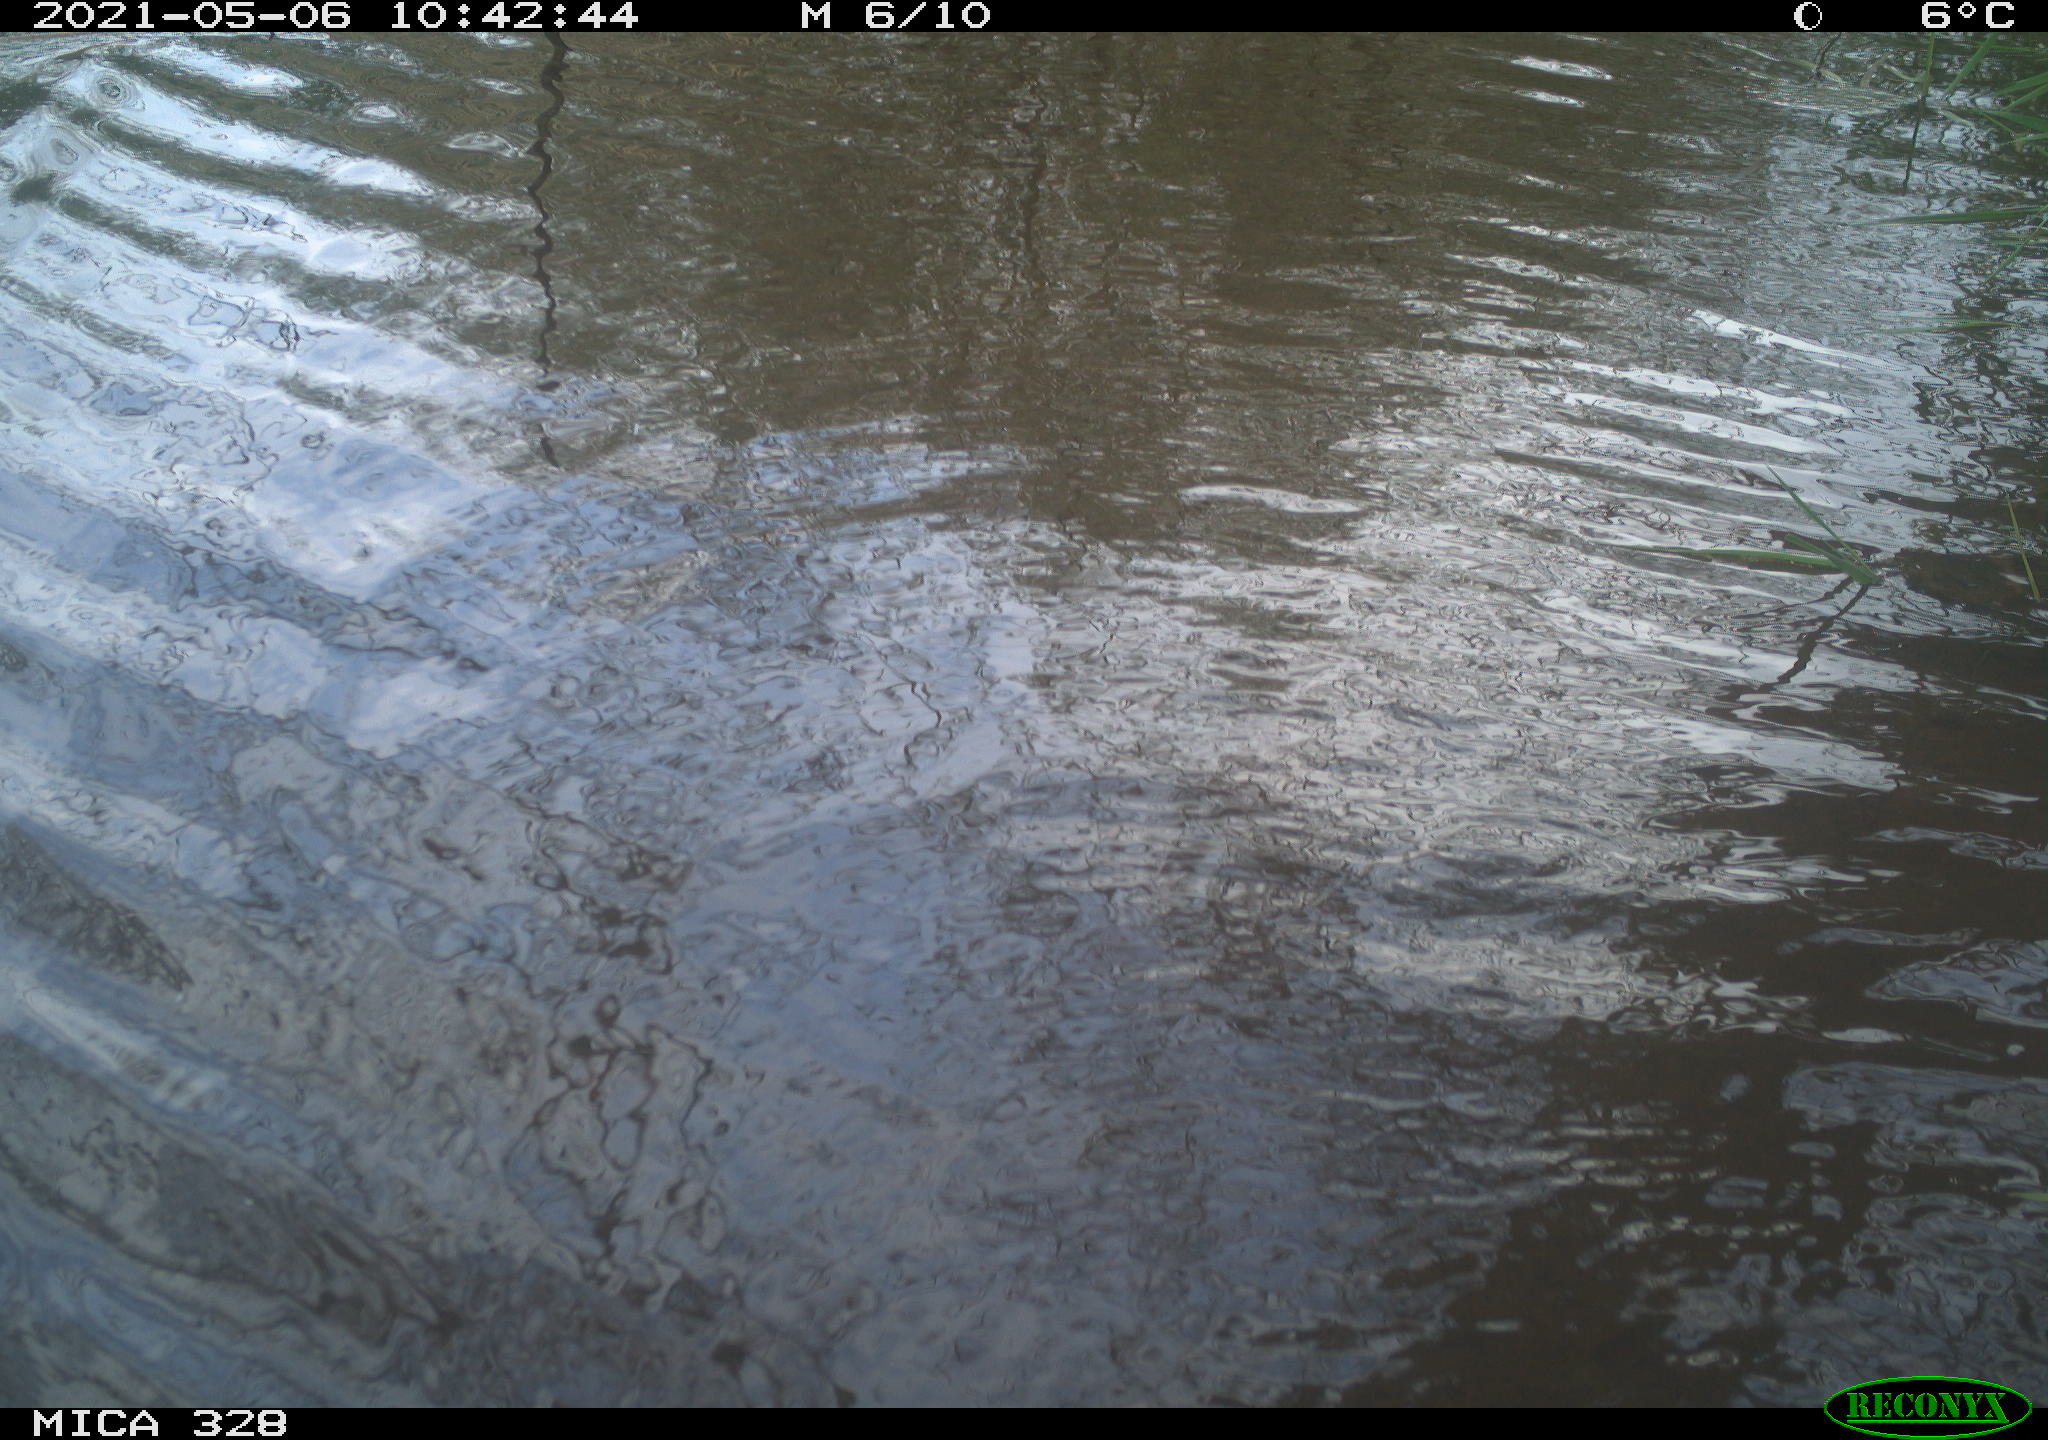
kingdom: Animalia
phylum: Chordata
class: Mammalia
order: Rodentia
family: Cricetidae
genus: Ondatra
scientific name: Ondatra zibethicus
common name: Muskrat
